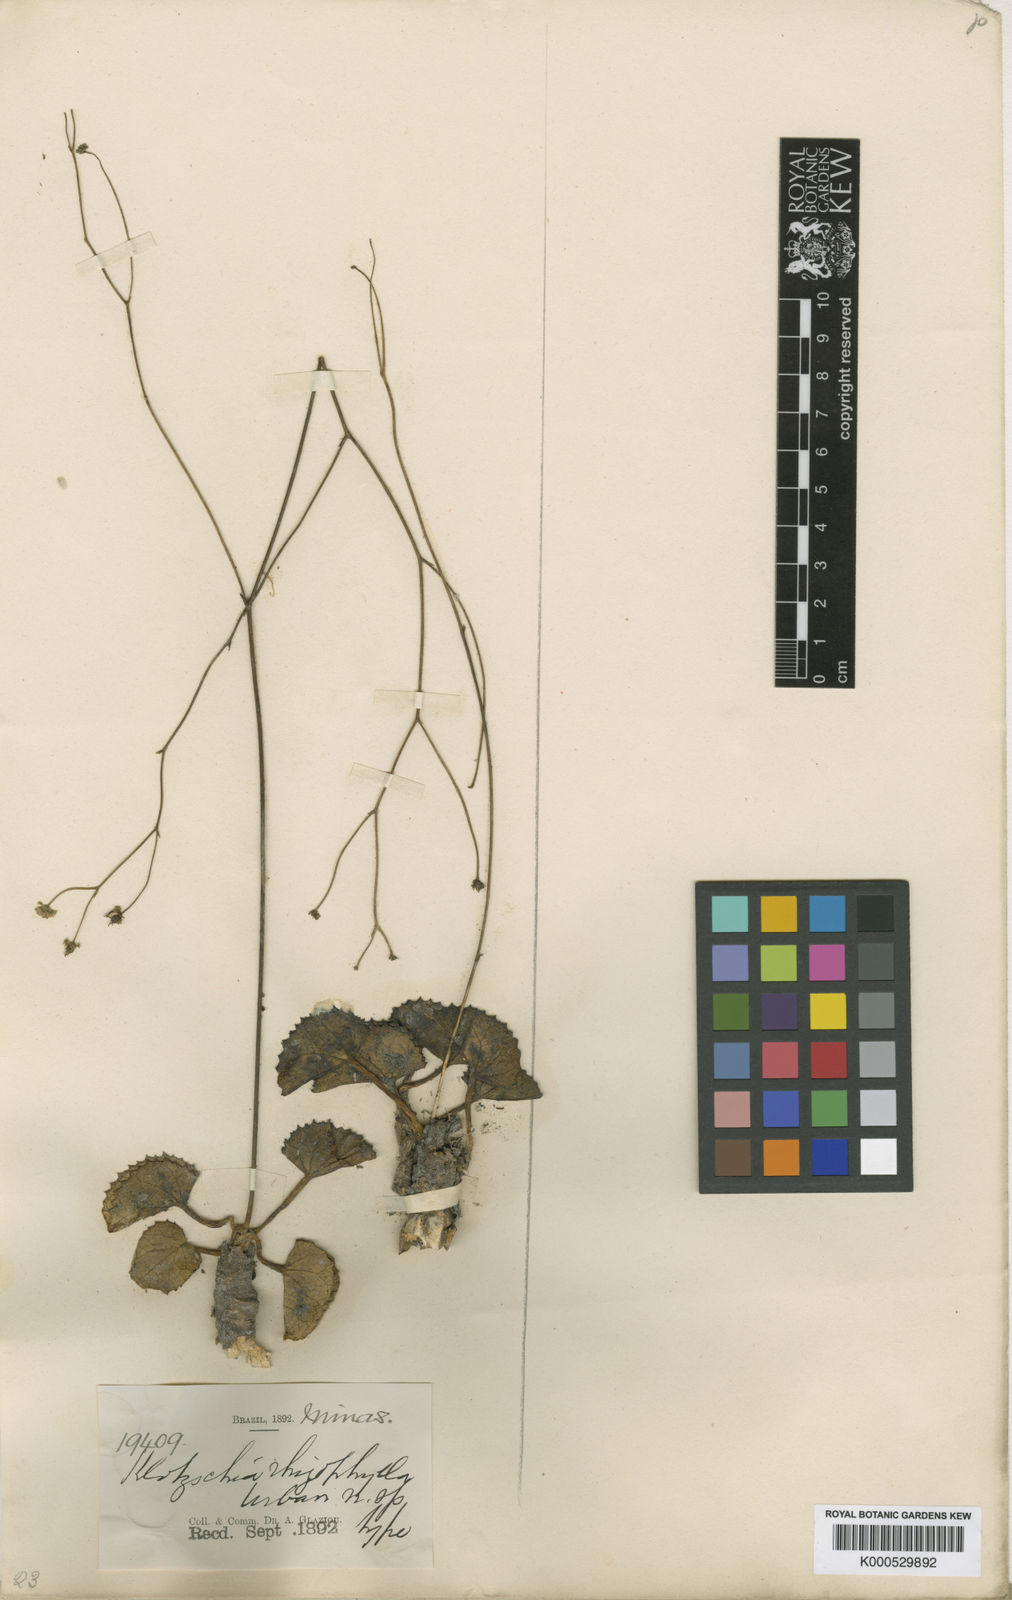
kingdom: Plantae
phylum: Tracheophyta
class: Magnoliopsida
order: Apiales
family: Apiaceae
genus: Klotzschia
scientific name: Klotzschia rhizophylla
